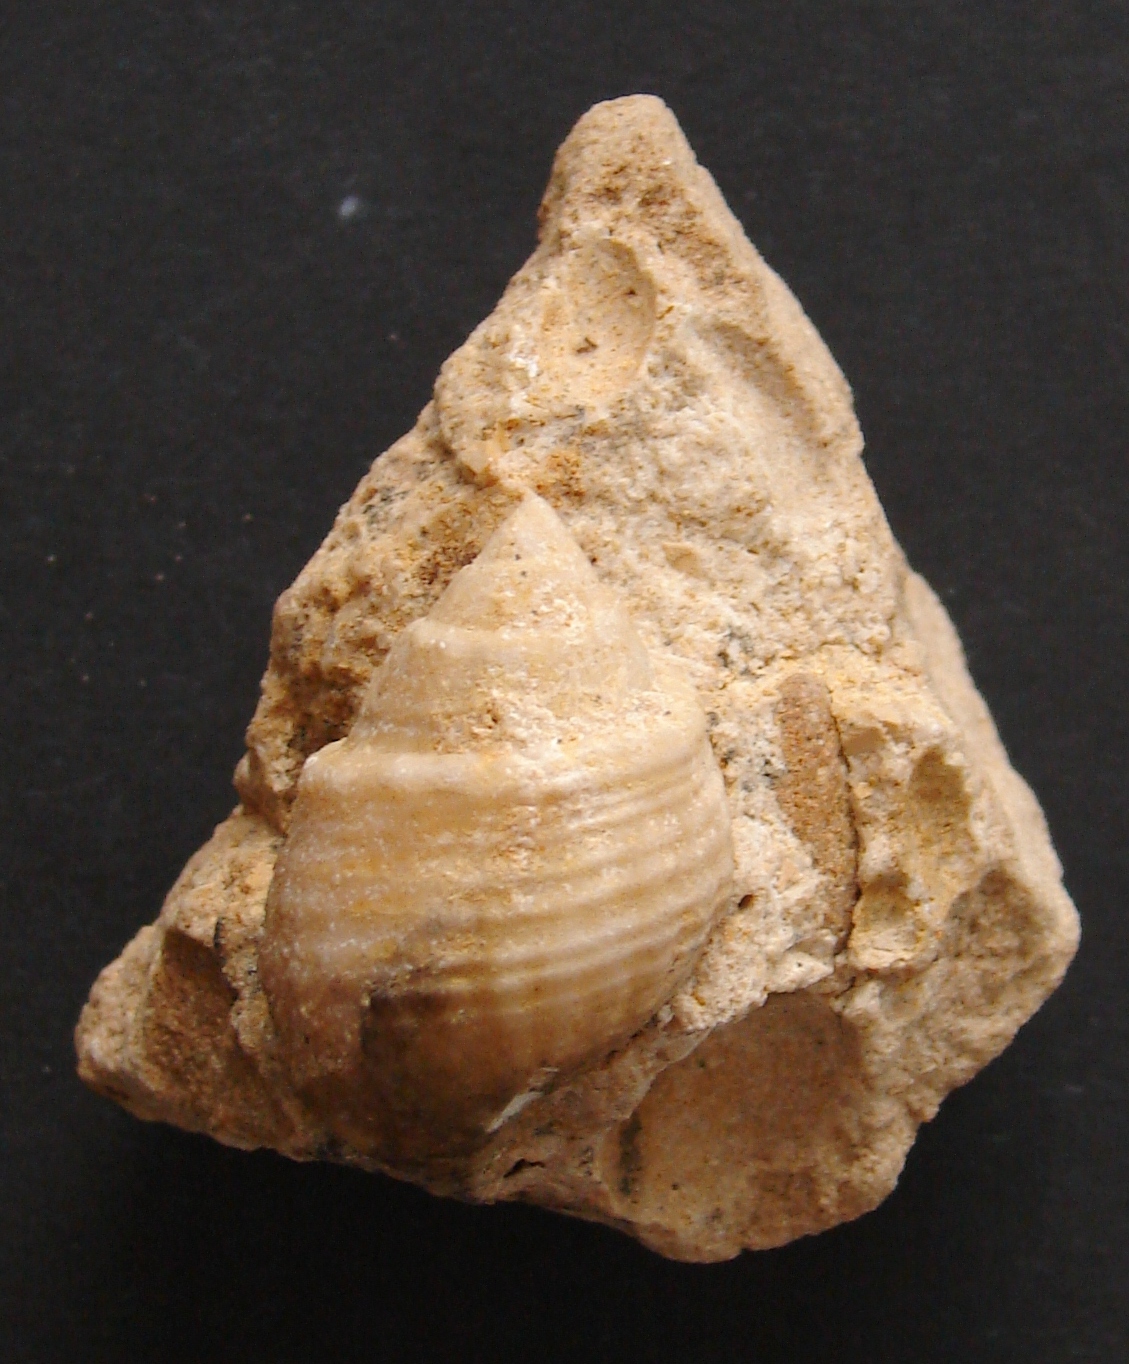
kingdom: Animalia
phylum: Mollusca
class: Gastropoda
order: Neogastropoda
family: Purpurinidae
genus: Microschiza
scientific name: Microschiza Turbo semiornatus
